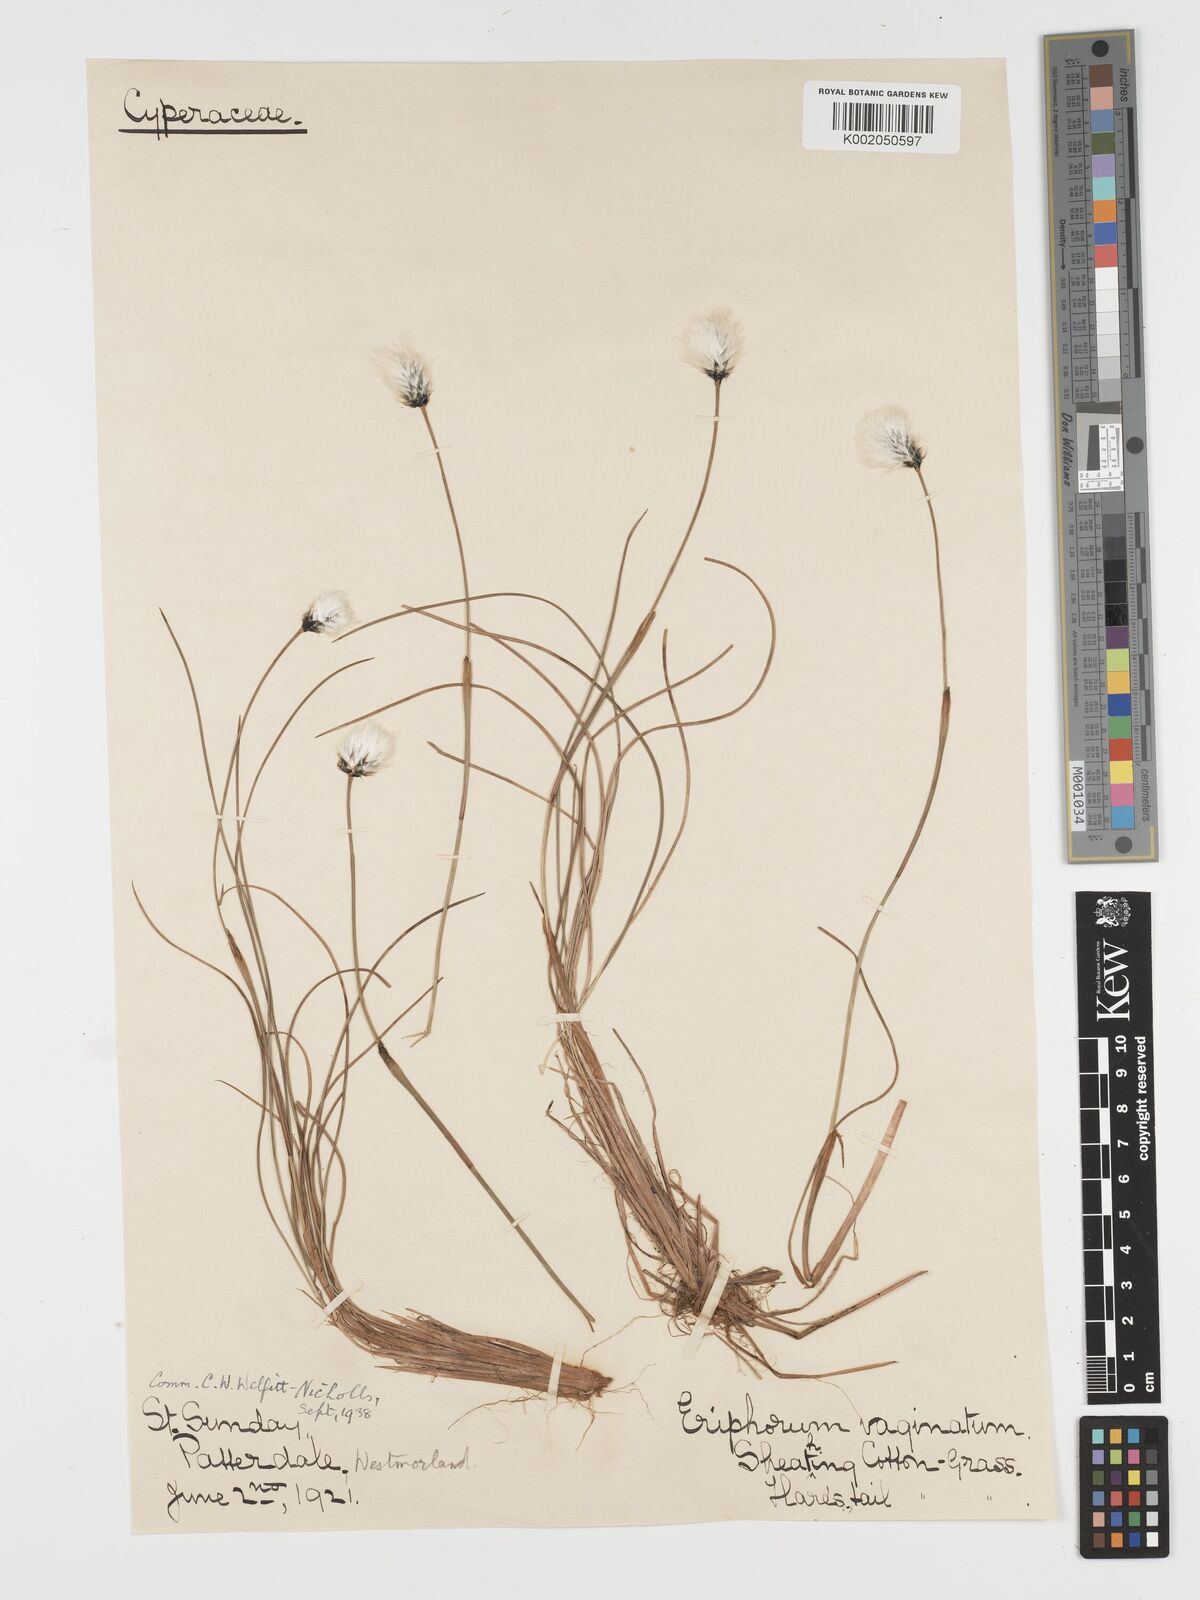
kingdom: Plantae
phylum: Tracheophyta
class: Liliopsida
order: Poales
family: Cyperaceae
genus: Eriophorum
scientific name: Eriophorum vaginatum
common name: Hare's-tail cottongrass
